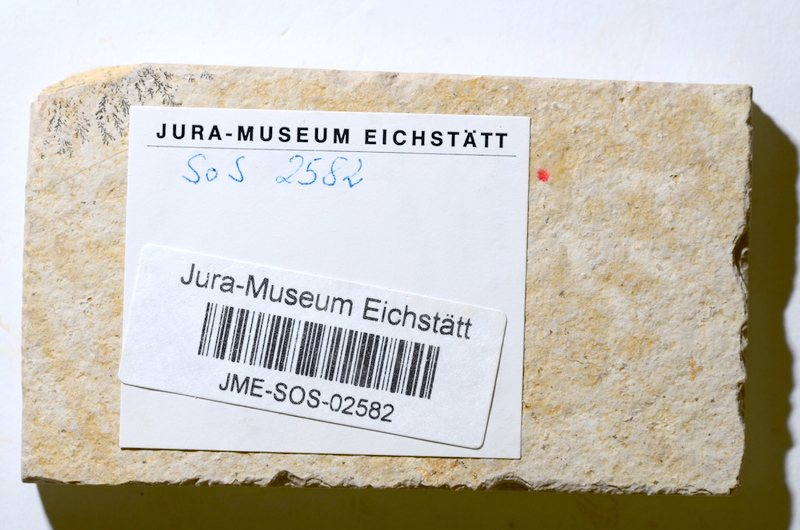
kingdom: Animalia
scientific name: Animalia
